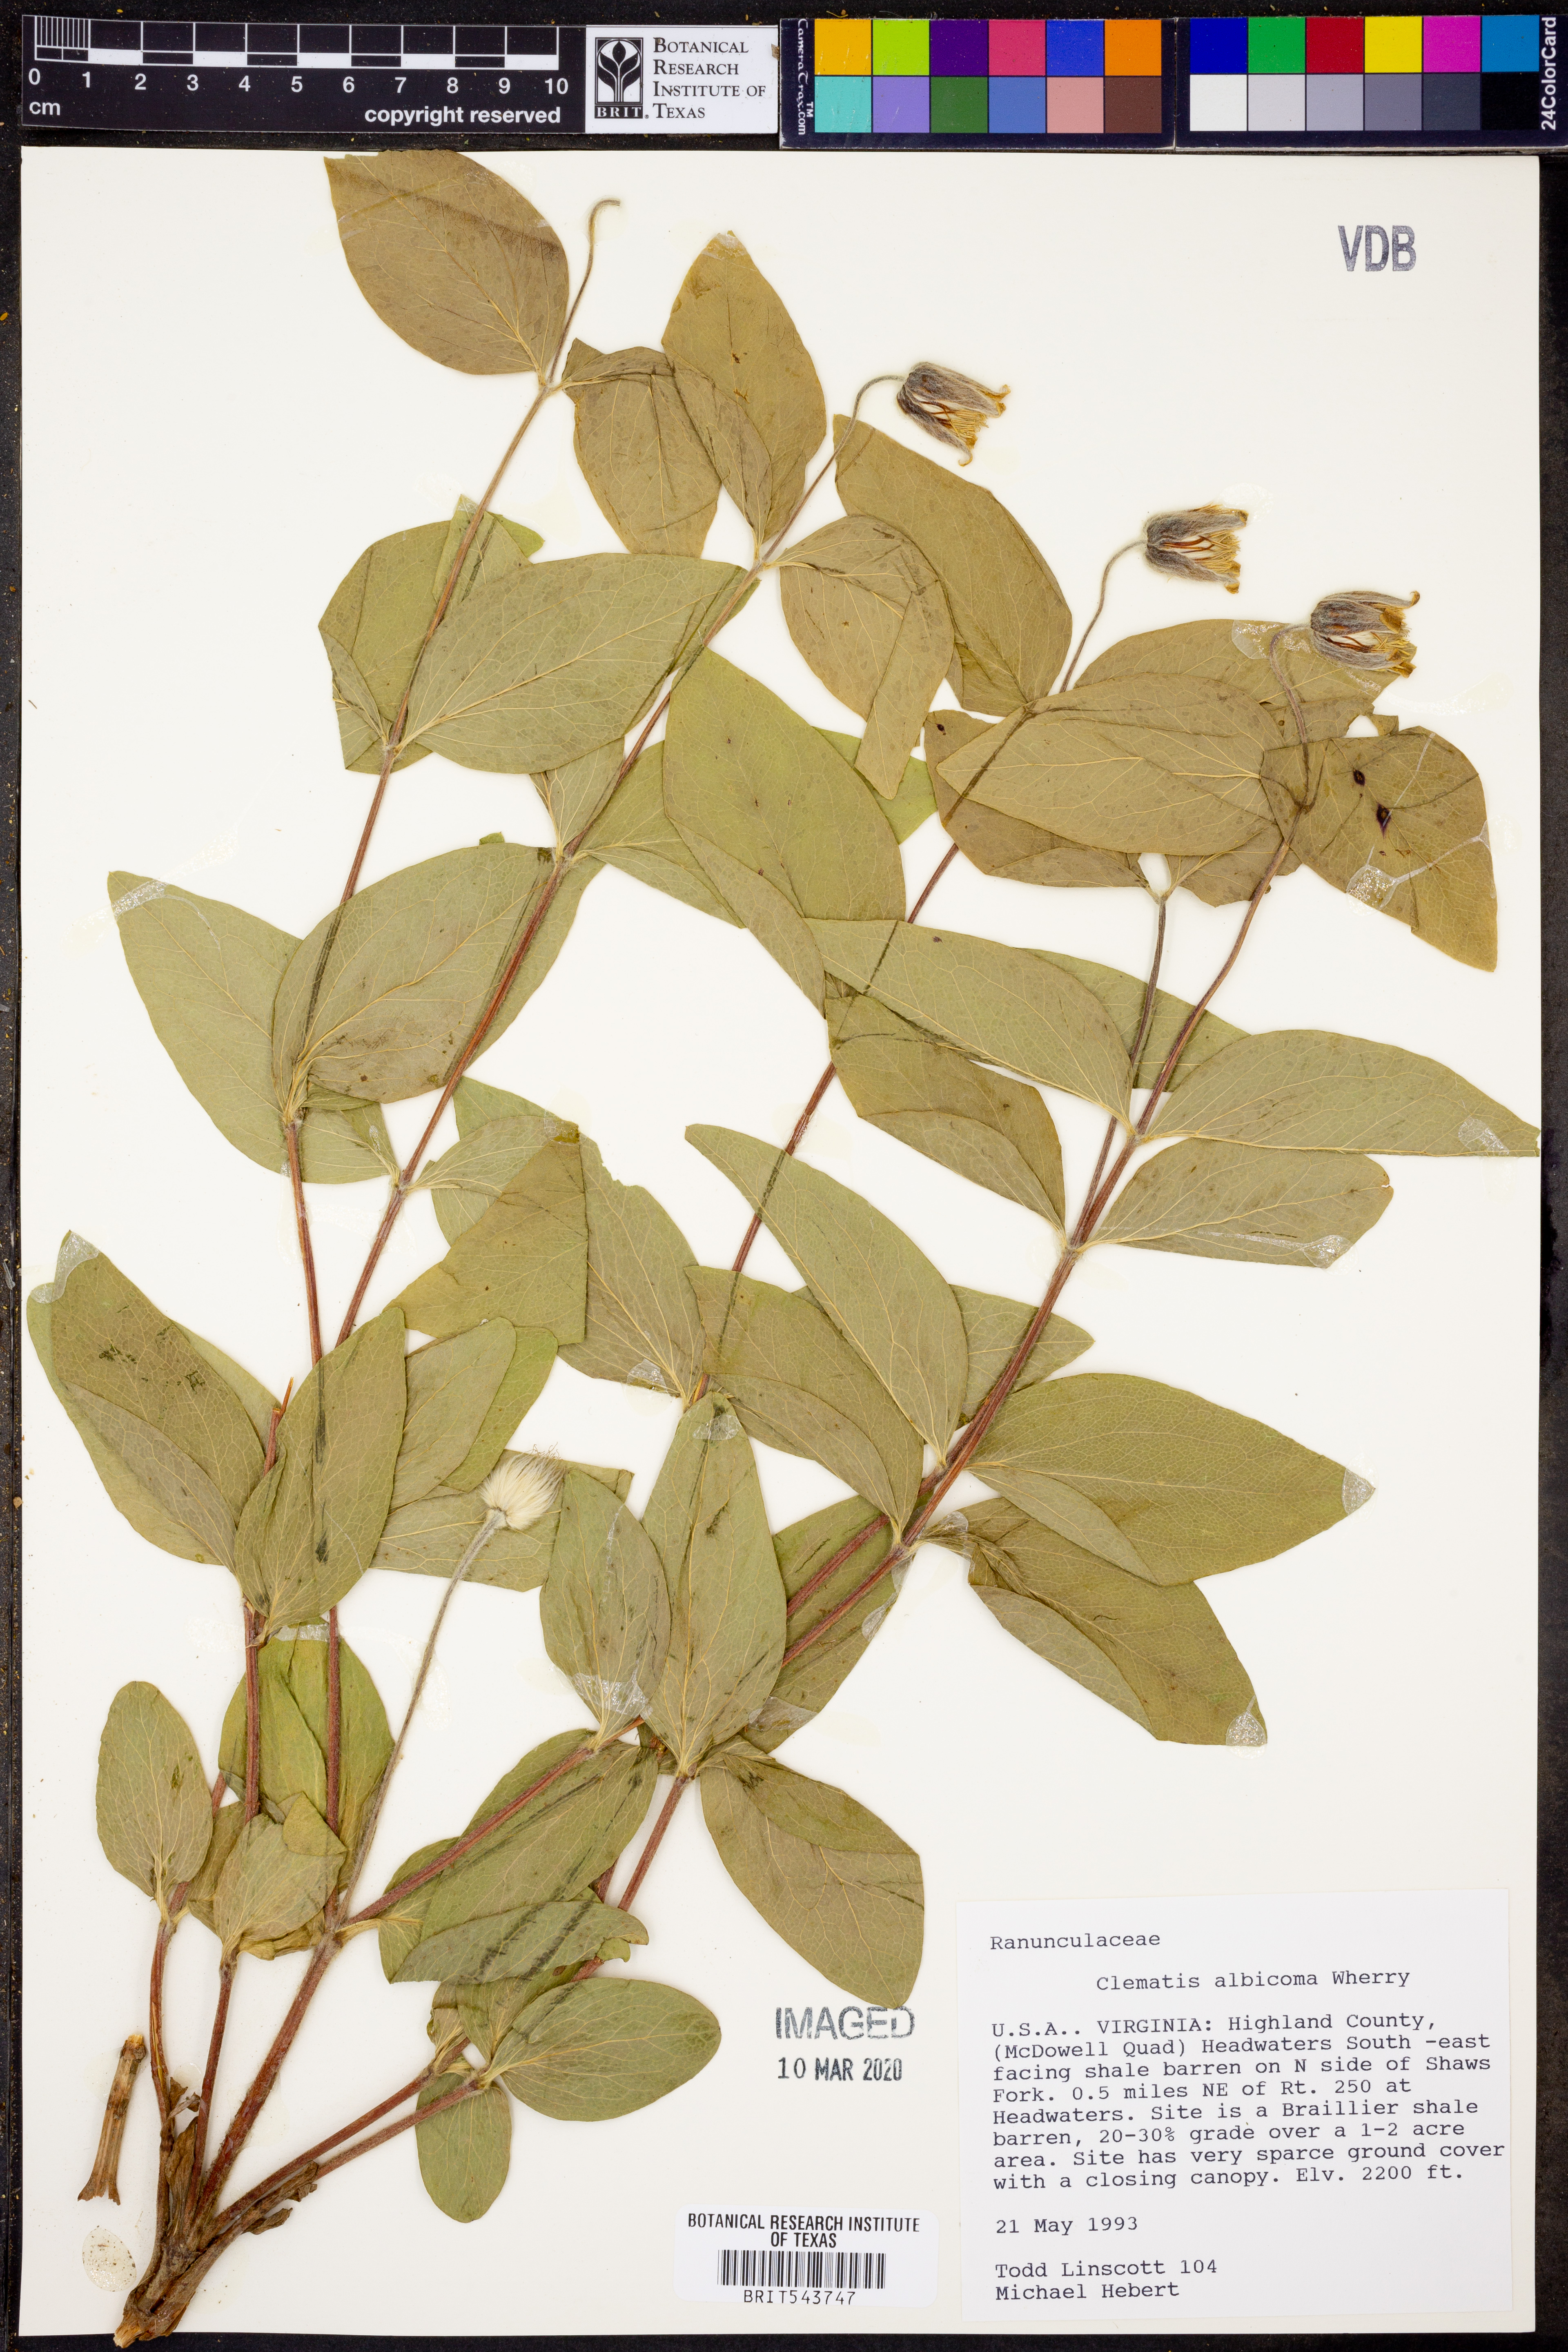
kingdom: Plantae
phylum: Tracheophyta
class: Magnoliopsida
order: Ranunculales
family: Ranunculaceae
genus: Clematis
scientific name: Clematis albicoma
